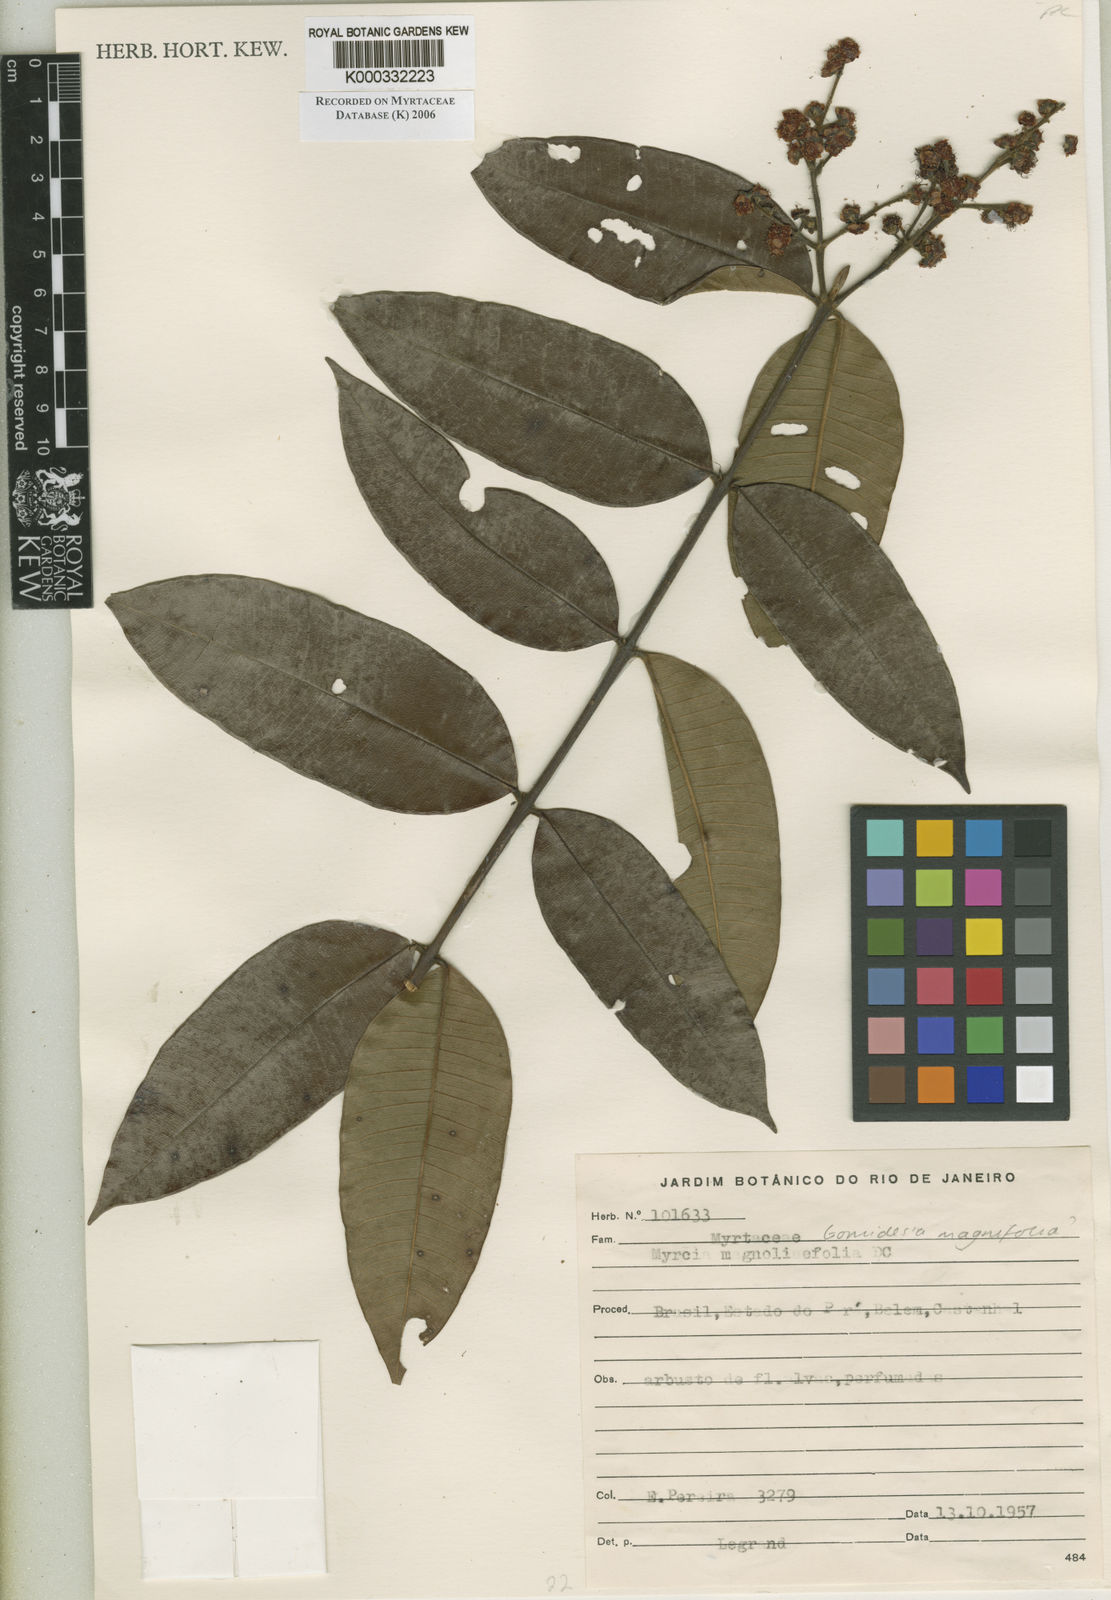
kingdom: Plantae
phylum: Tracheophyta
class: Magnoliopsida
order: Myrtales
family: Myrtaceae
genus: Myrcia
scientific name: Myrcia
